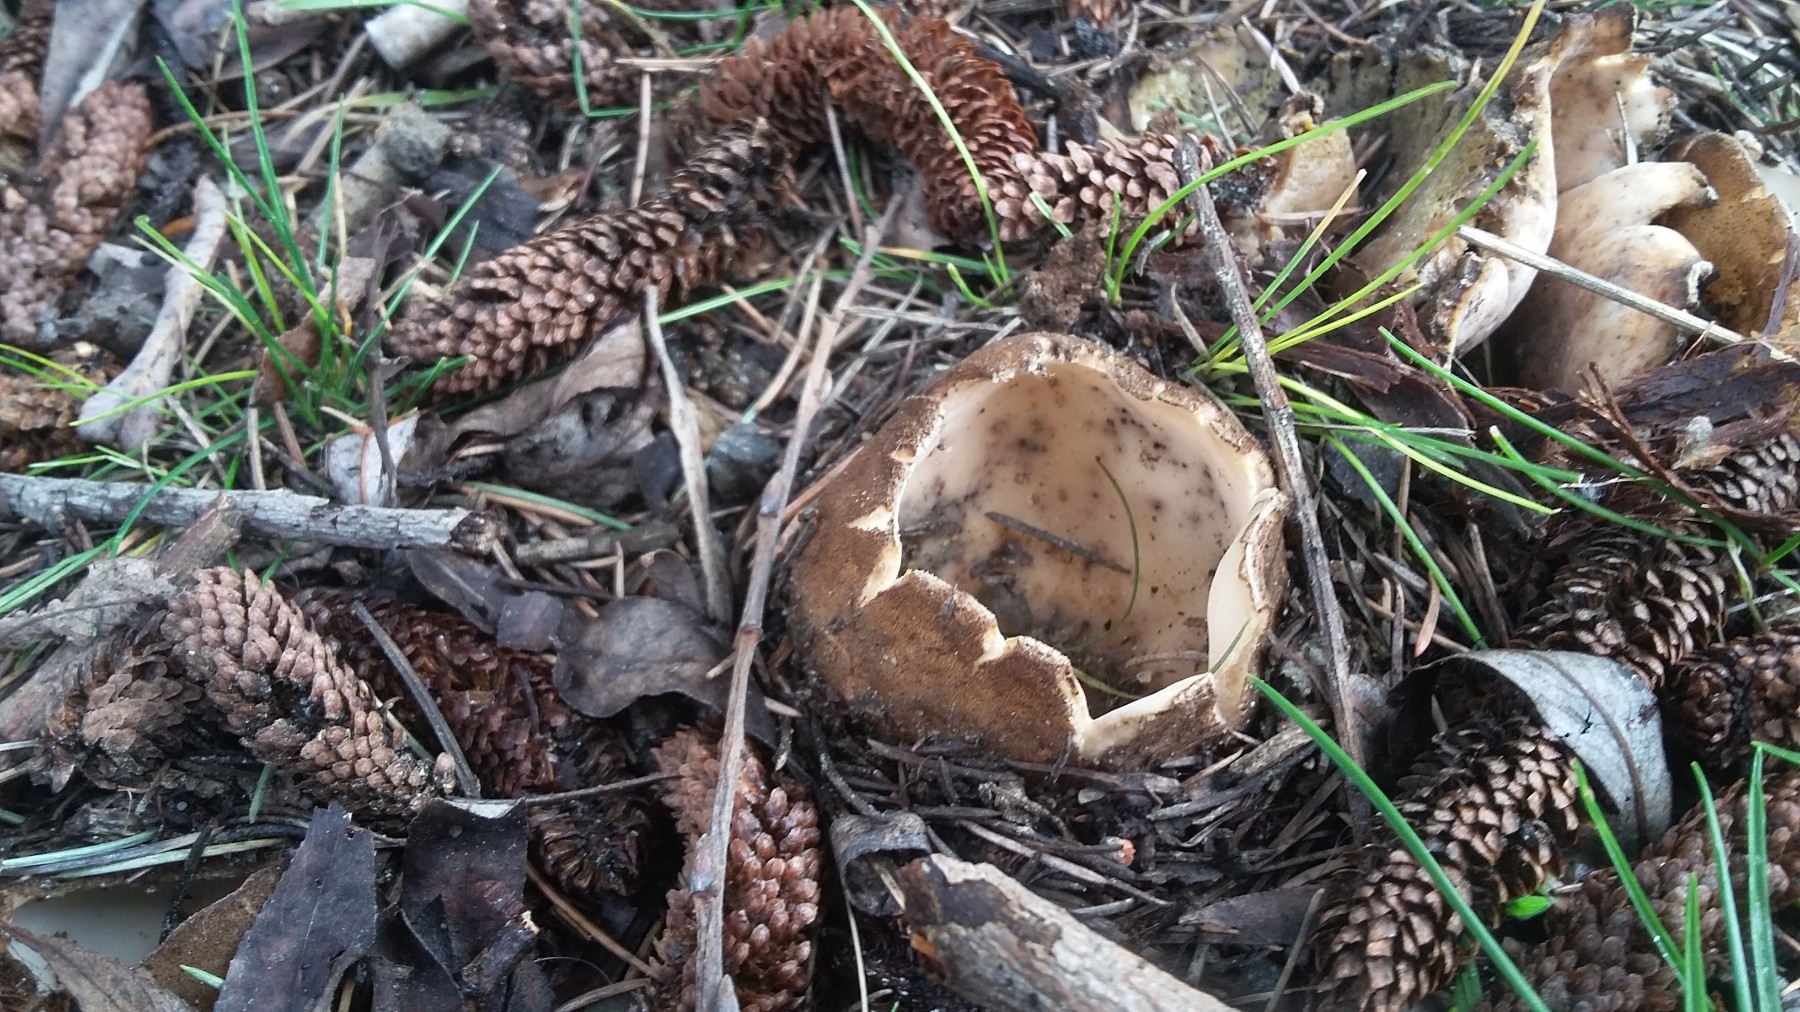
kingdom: Fungi
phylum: Ascomycota
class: Pezizomycetes
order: Pezizales
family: Pyronemataceae
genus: Geopora
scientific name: Geopora sumneriana
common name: vår-jordbæger
